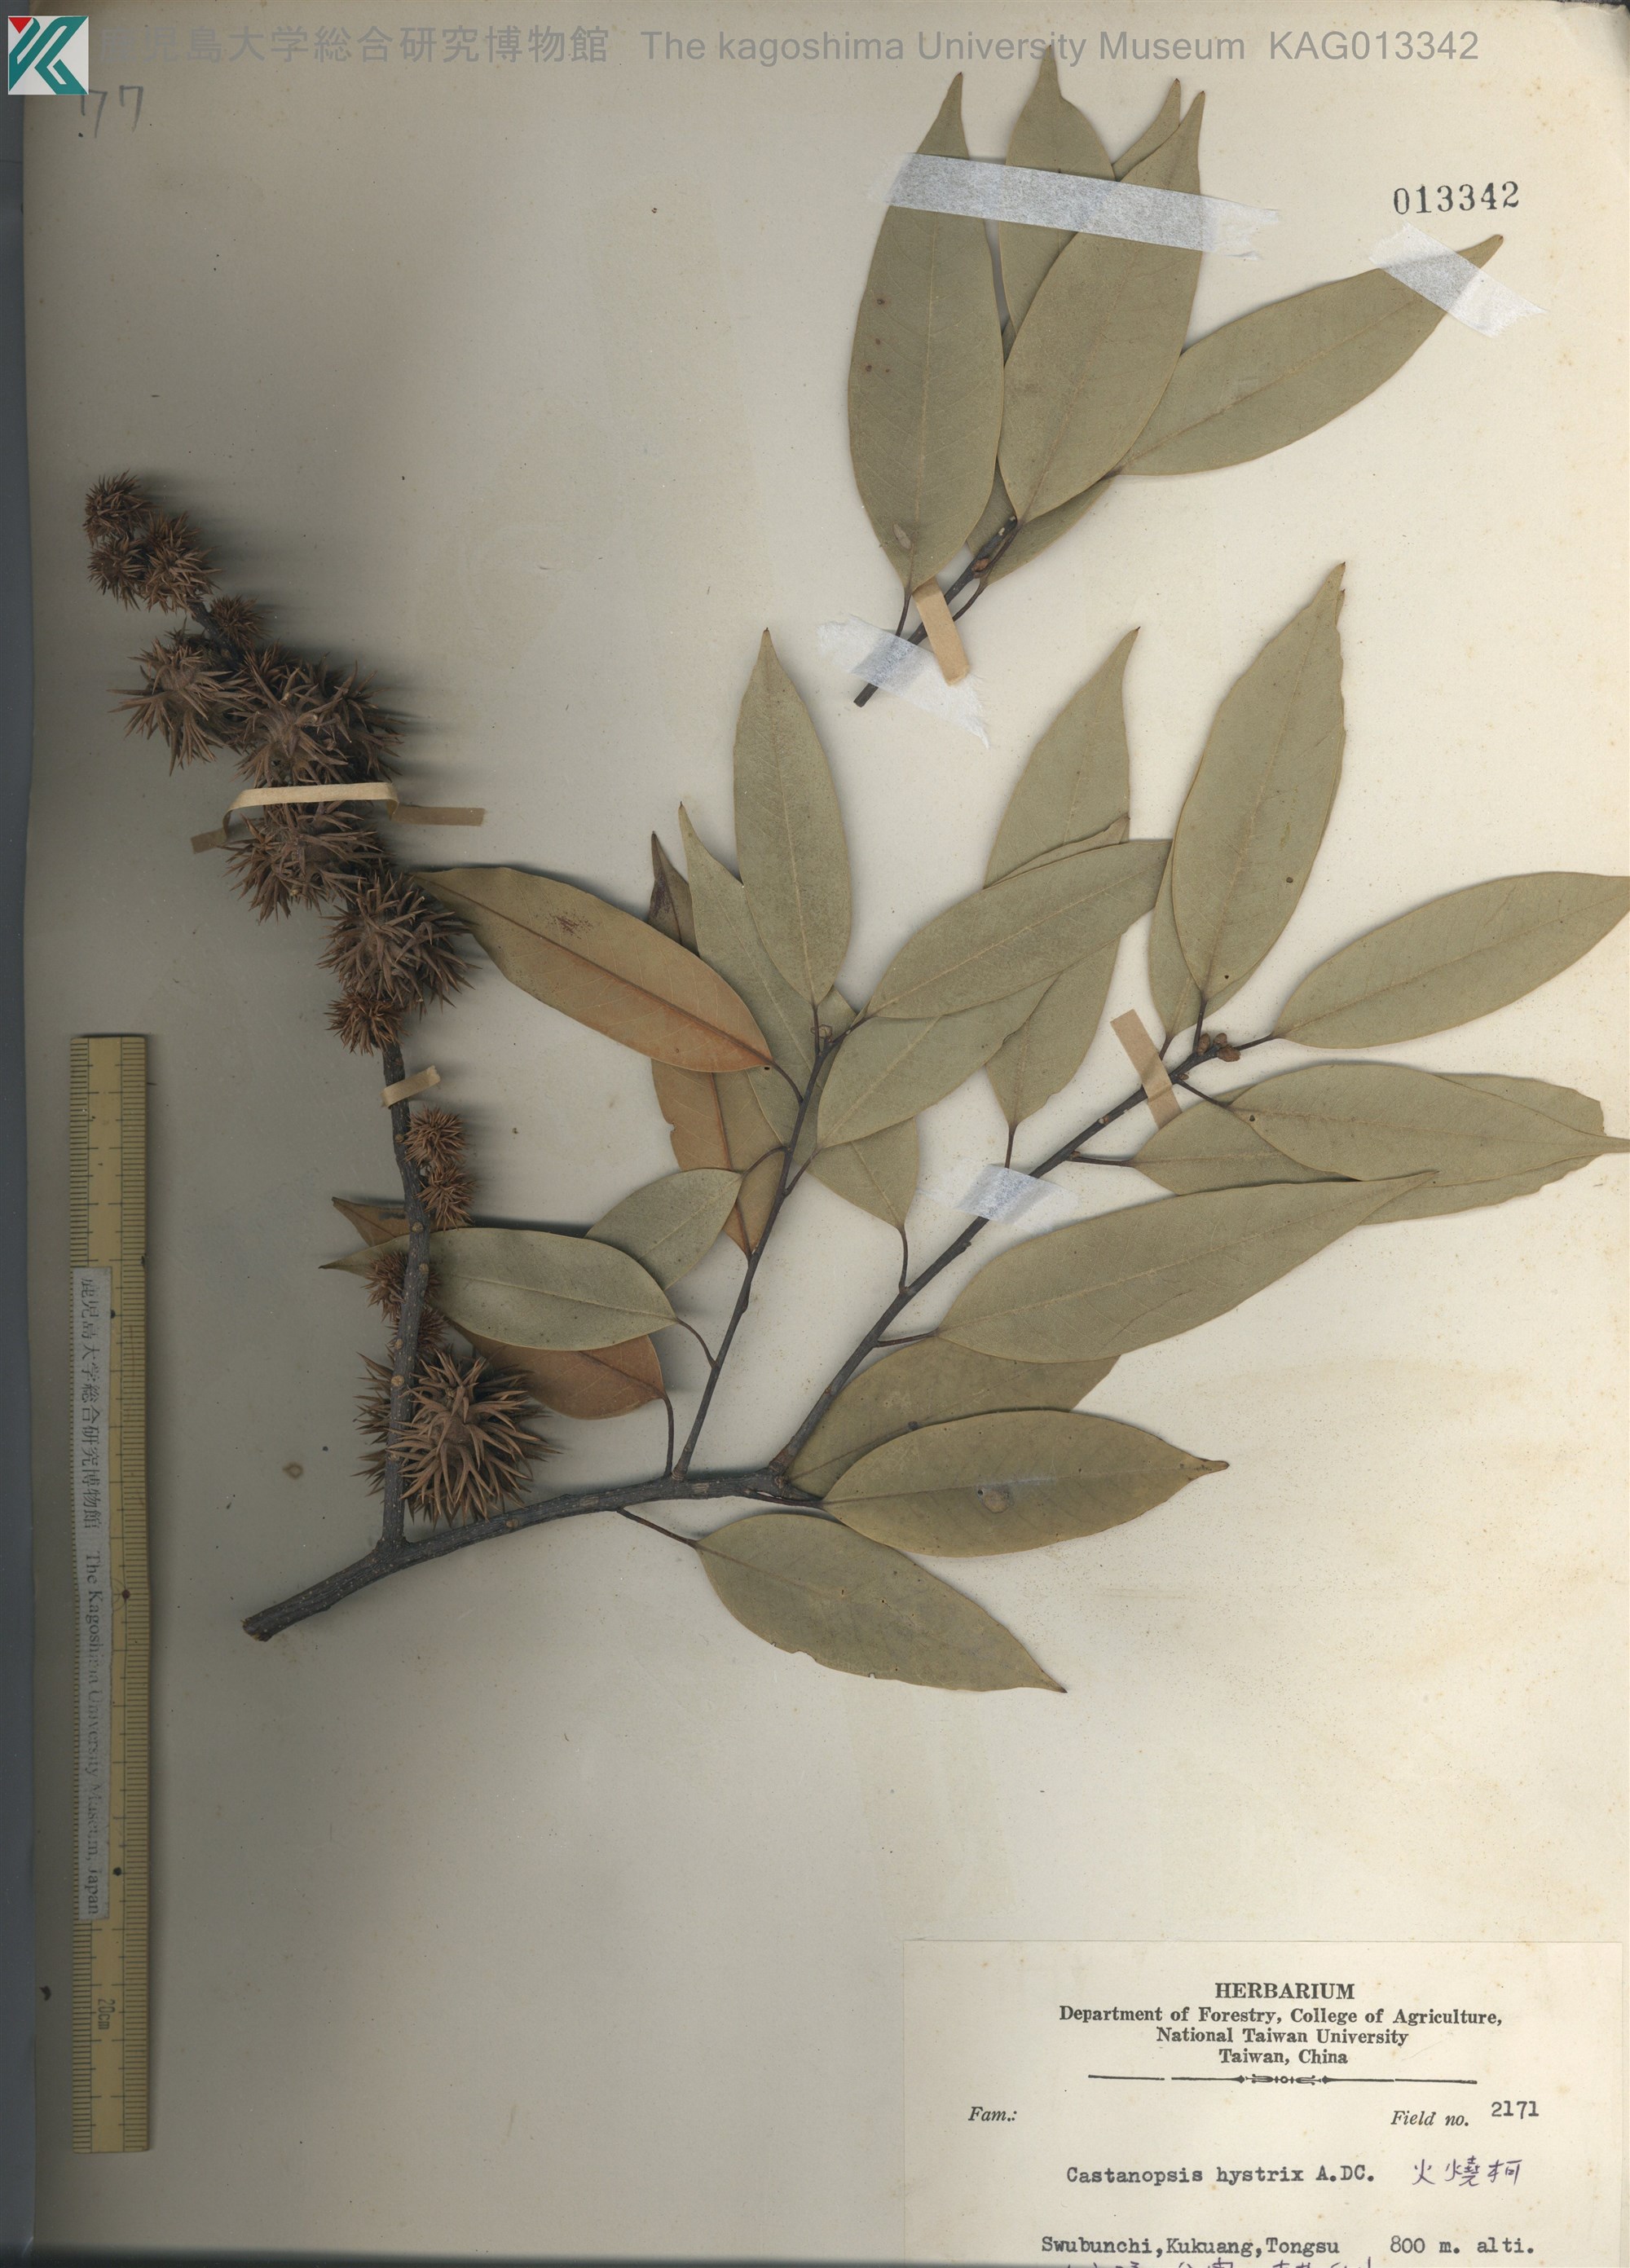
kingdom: Plantae
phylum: Tracheophyta
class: Magnoliopsida
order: Fagales
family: Fagaceae
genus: Castanopsis
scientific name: Castanopsis hystrix
